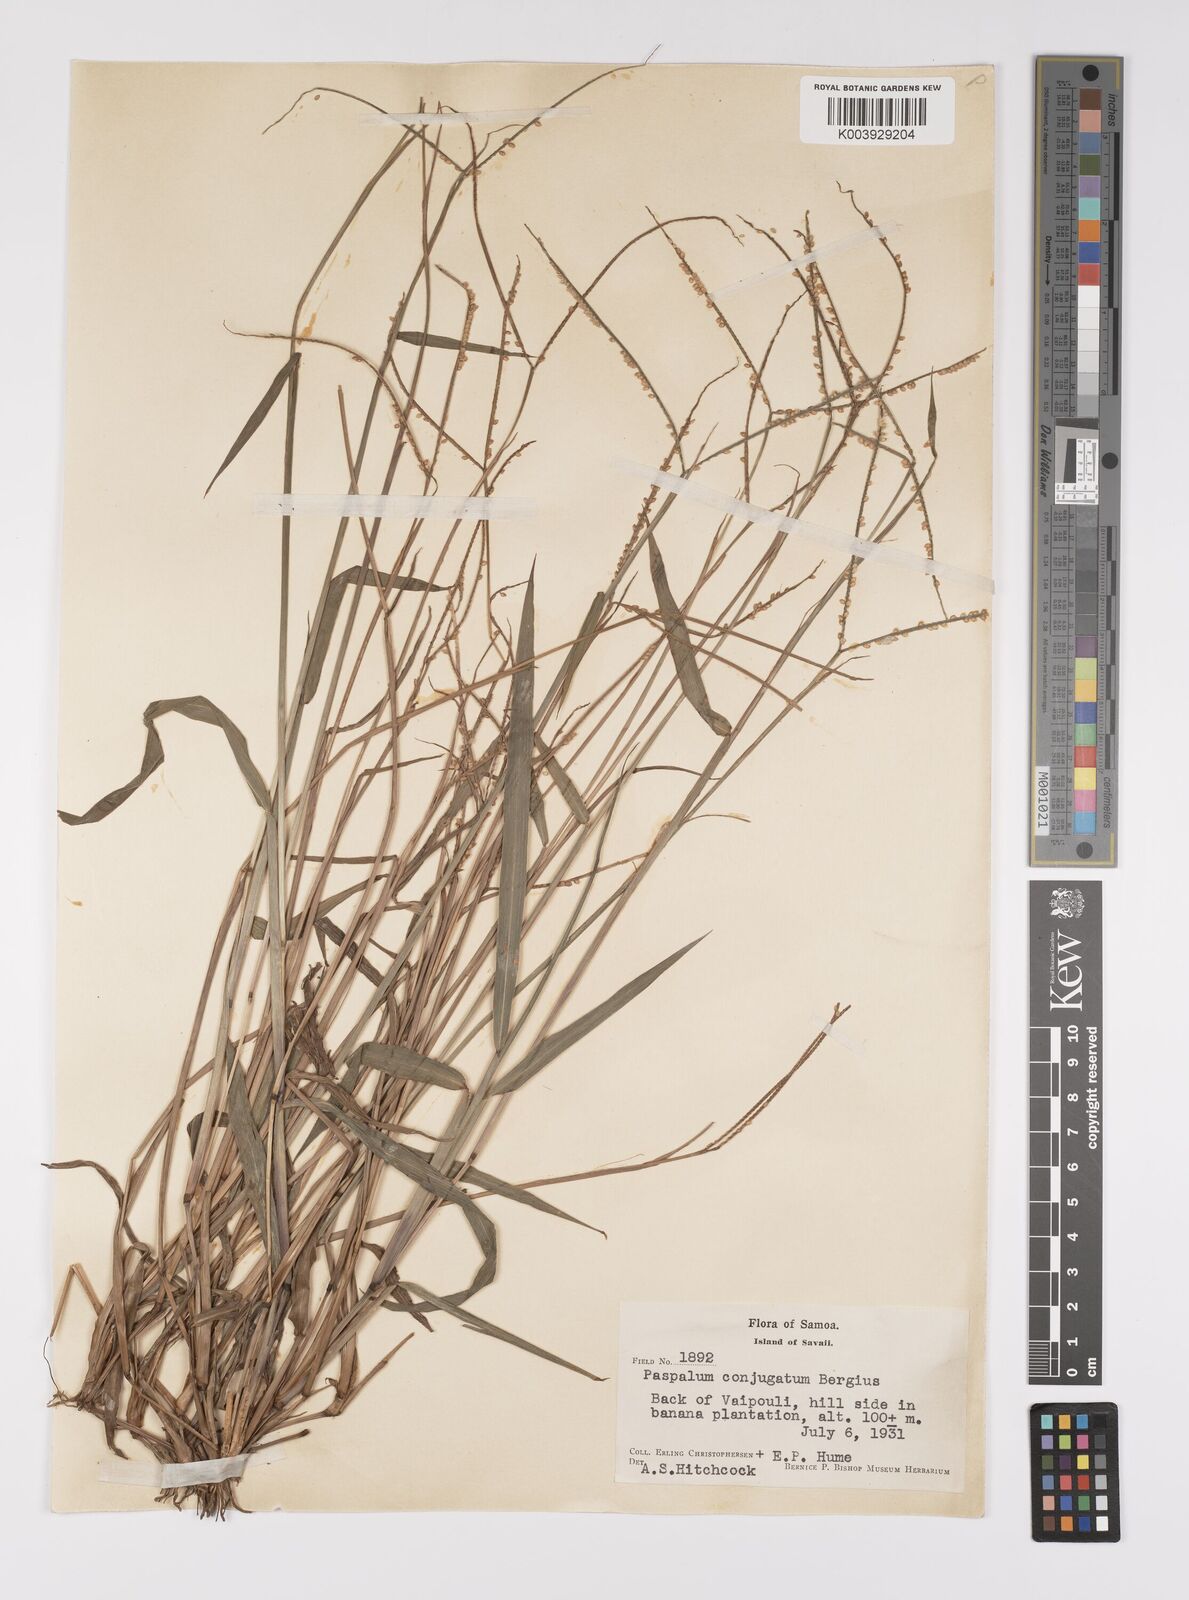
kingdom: Plantae
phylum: Tracheophyta
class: Liliopsida
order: Poales
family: Poaceae
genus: Paspalum
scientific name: Paspalum conjugatum
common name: Hilograss
